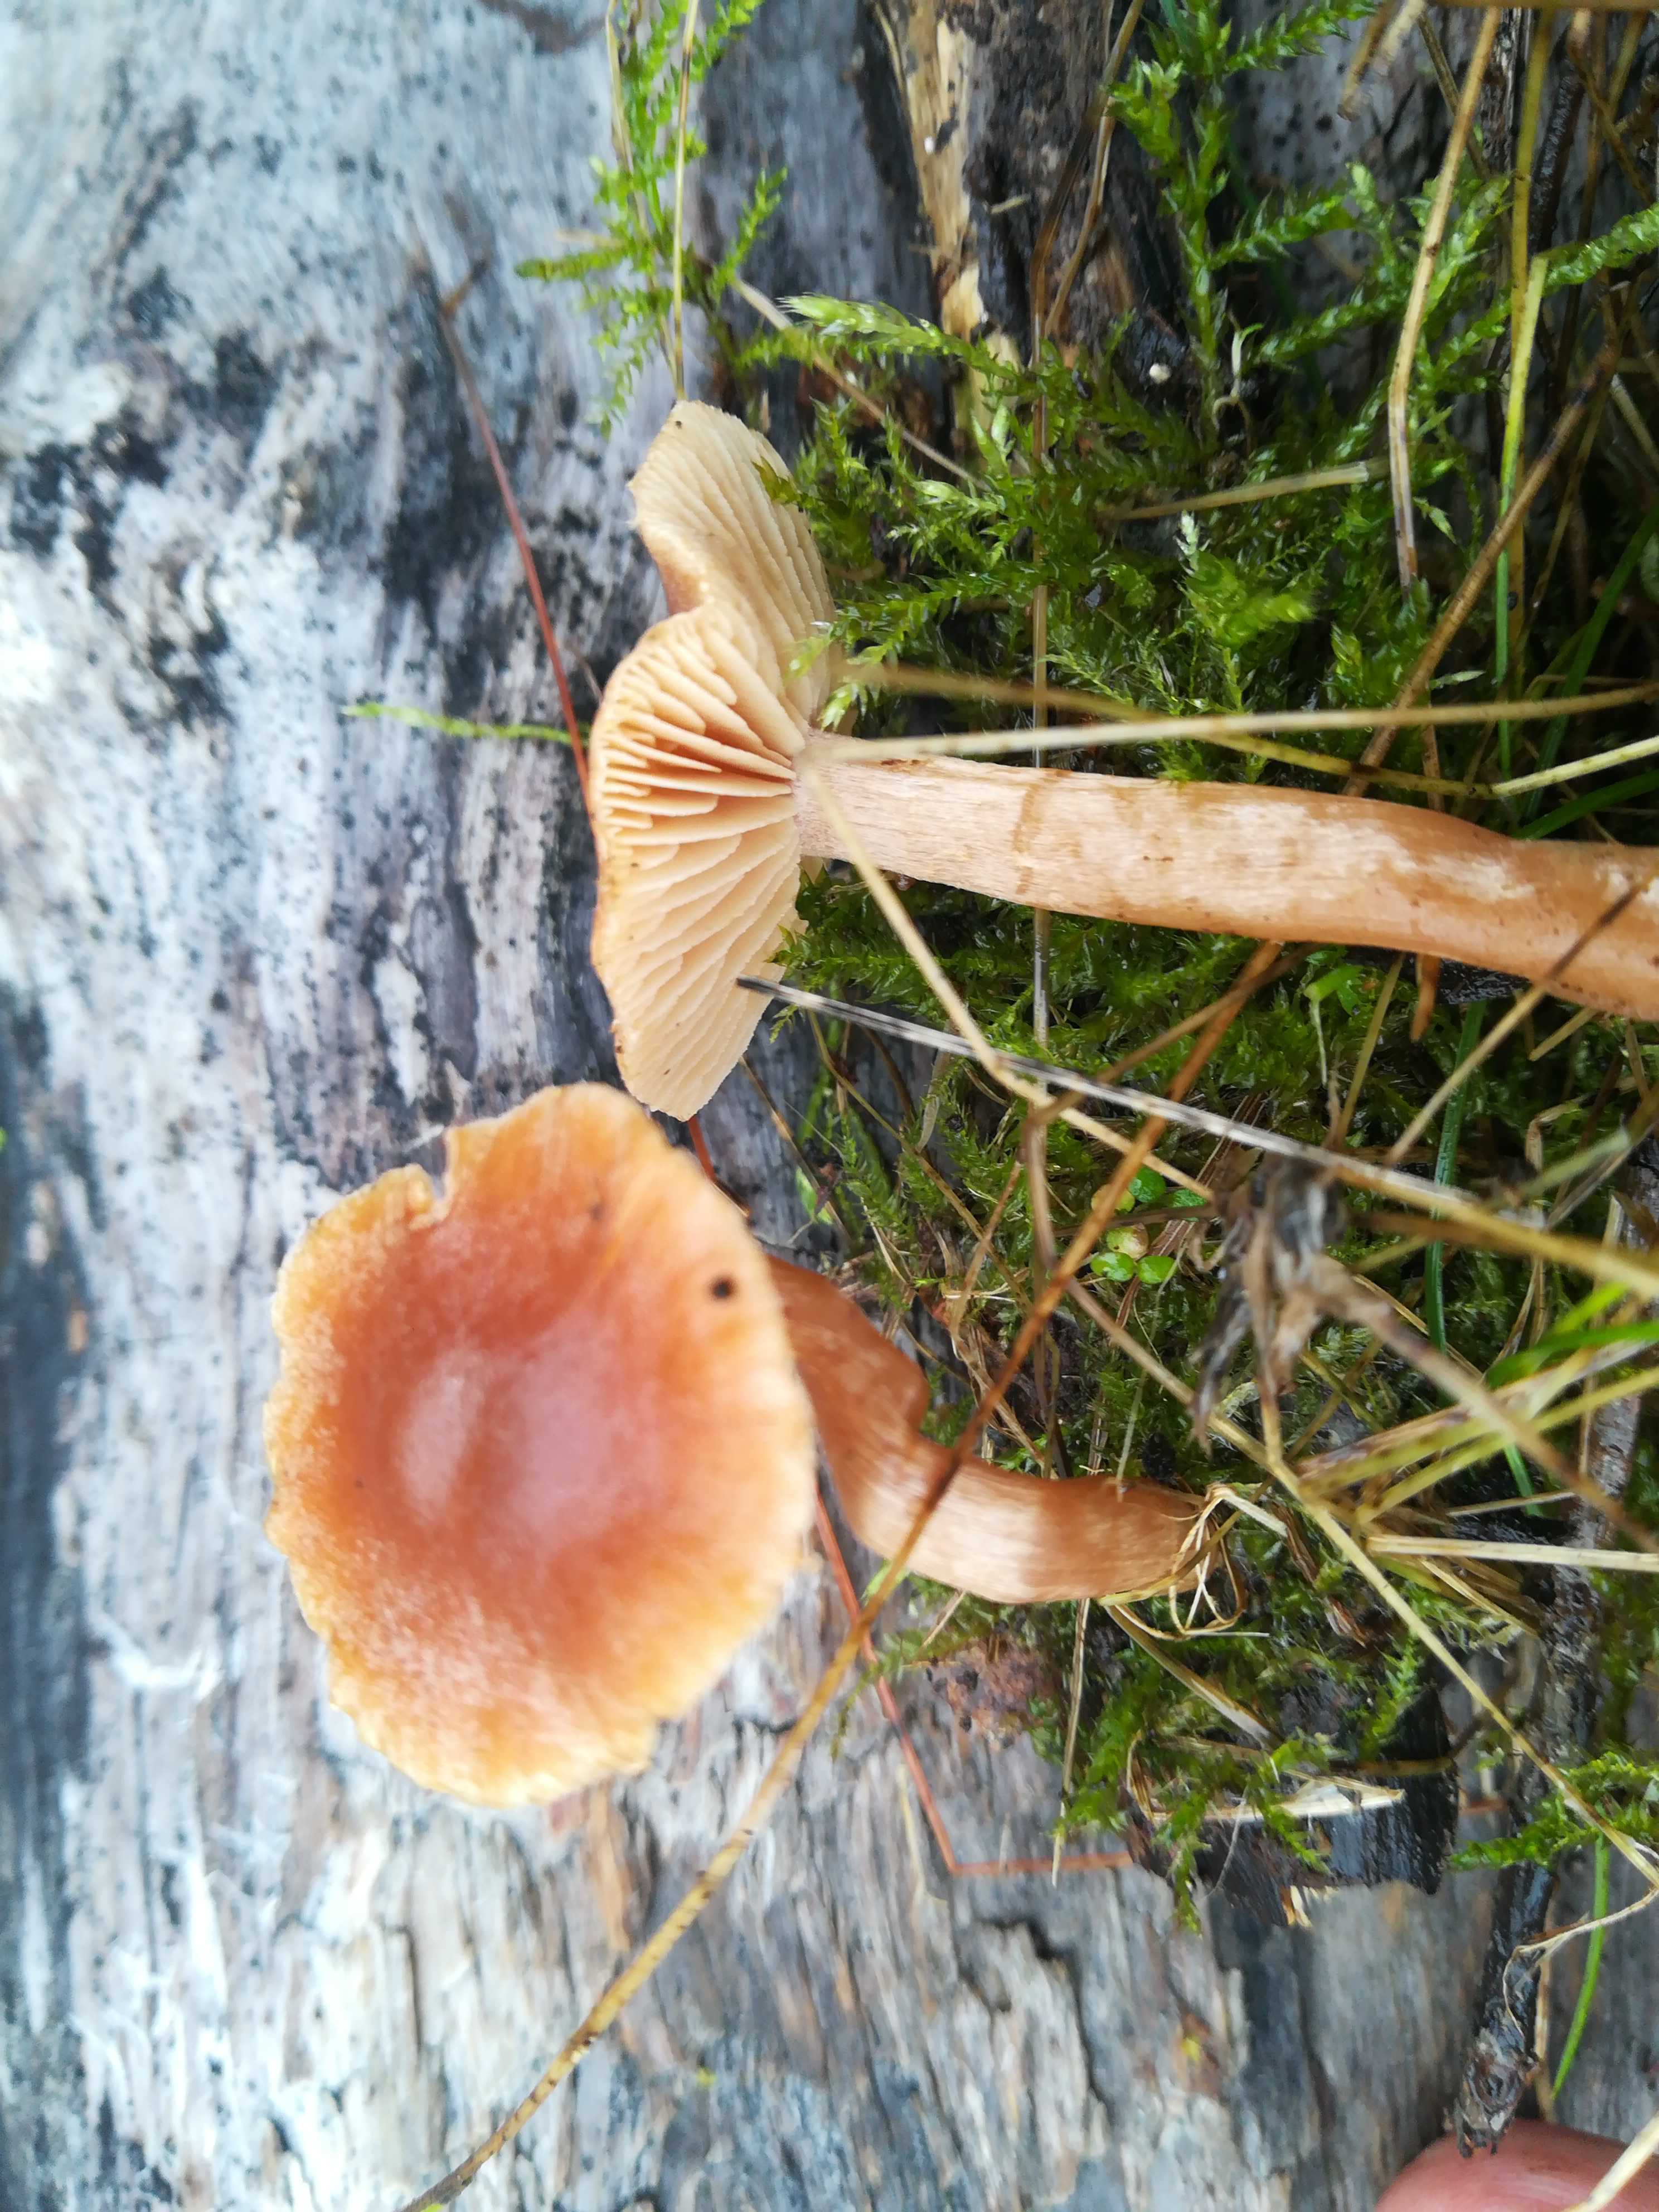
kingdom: Fungi
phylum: Basidiomycota
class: Agaricomycetes
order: Agaricales
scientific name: Agaricales
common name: champignonordenen
